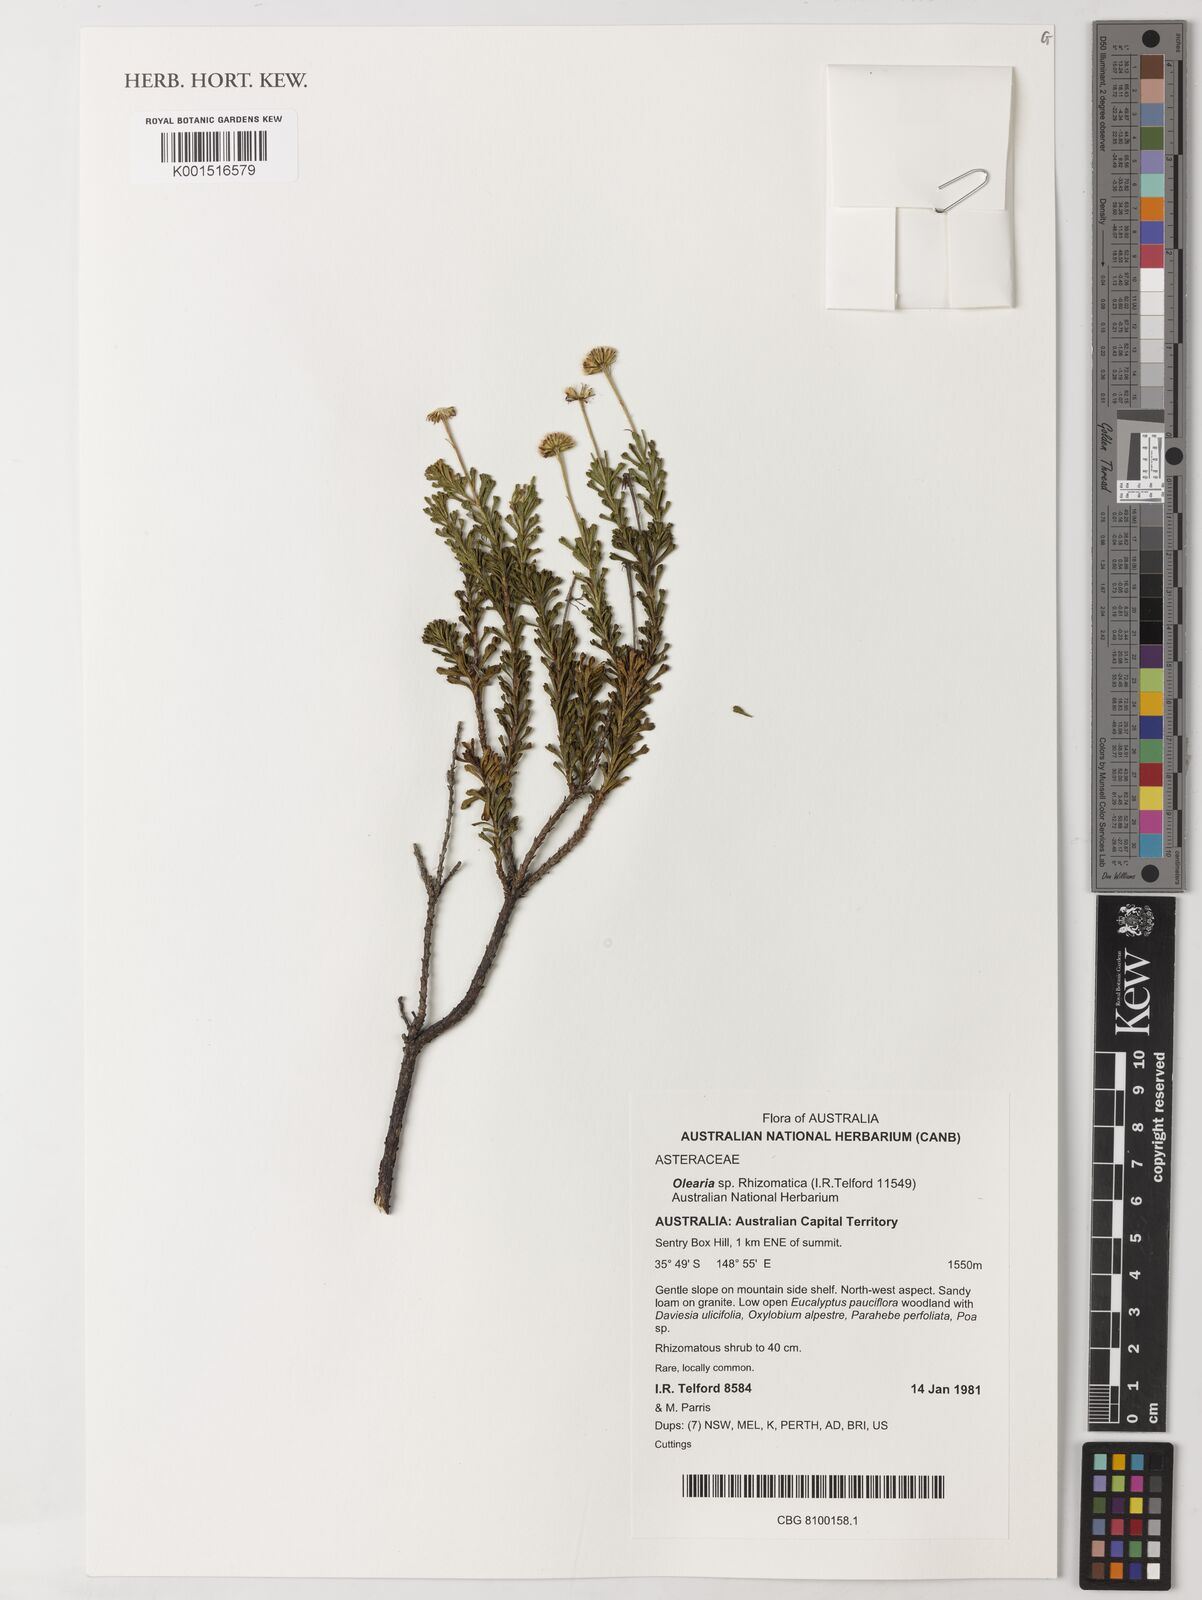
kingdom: Plantae
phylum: Tracheophyta
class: Magnoliopsida
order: Asterales
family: Asteraceae
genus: Olearia
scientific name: Olearia
